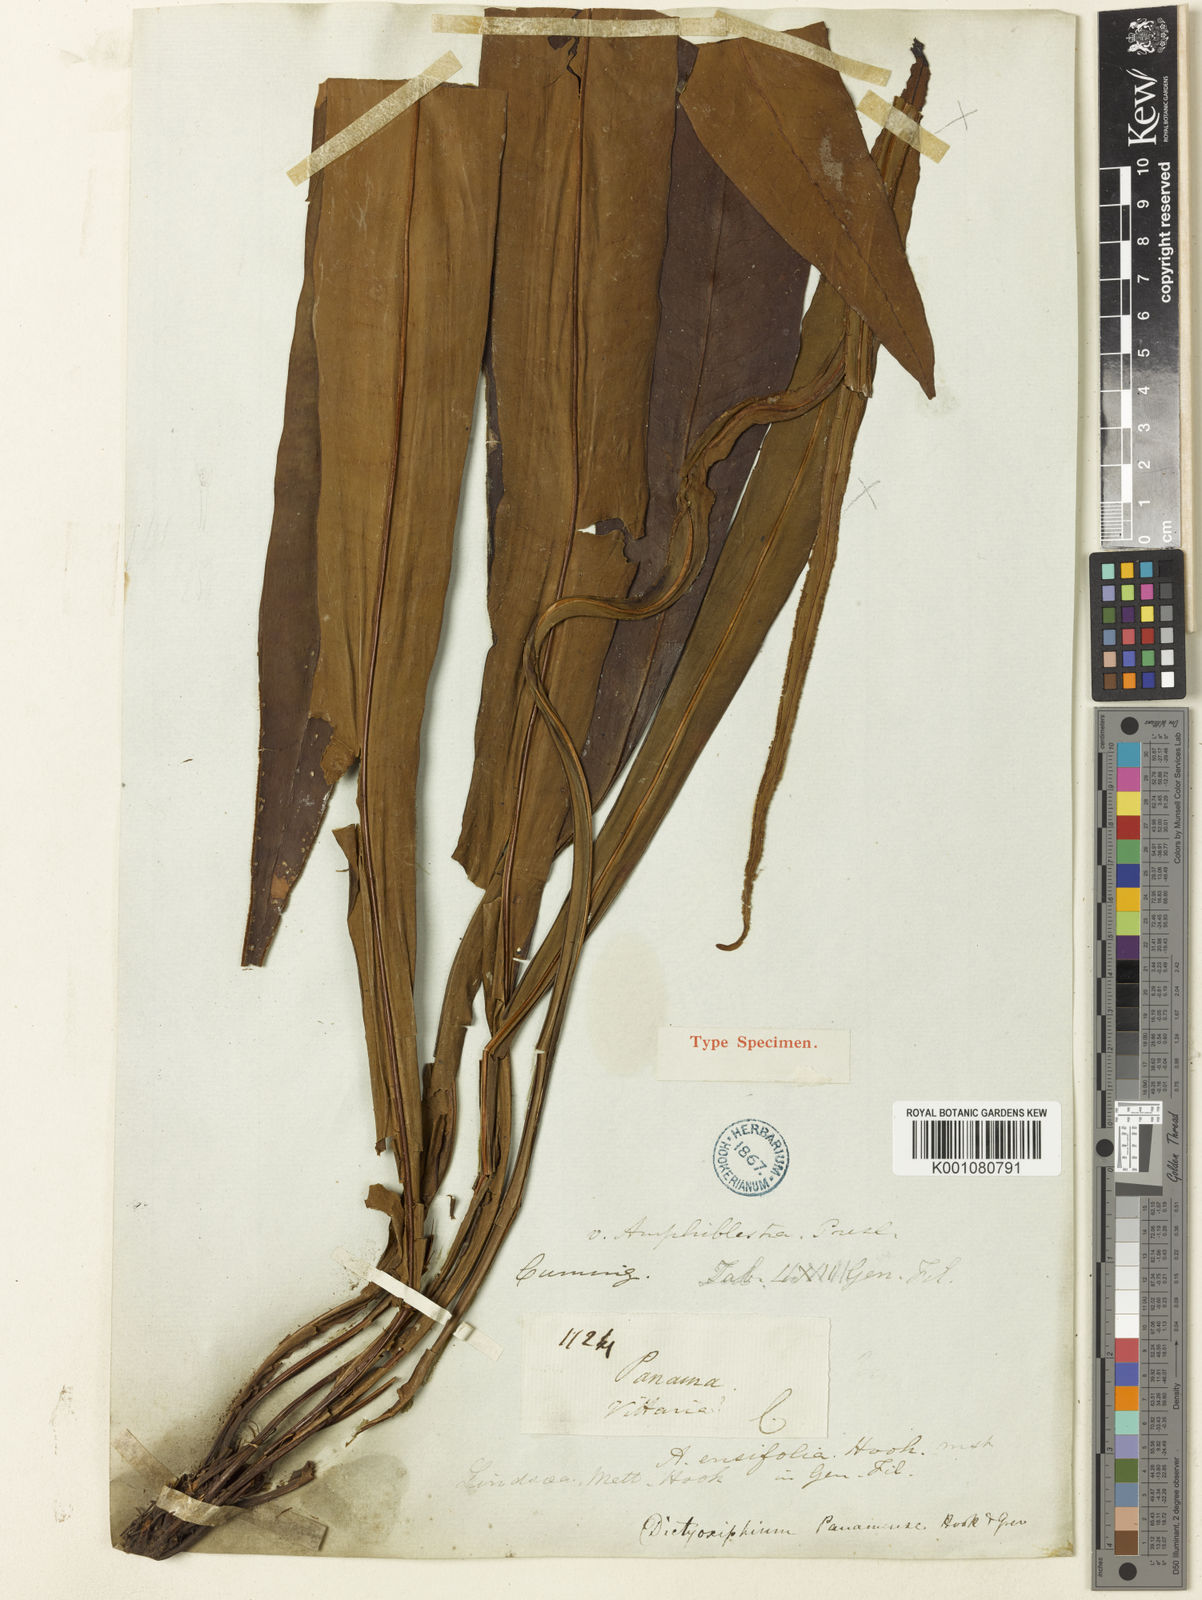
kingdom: Plantae
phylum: Tracheophyta
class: Polypodiopsida
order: Polypodiales
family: Tectariaceae
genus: Tectaria
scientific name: Tectaria panamensis
